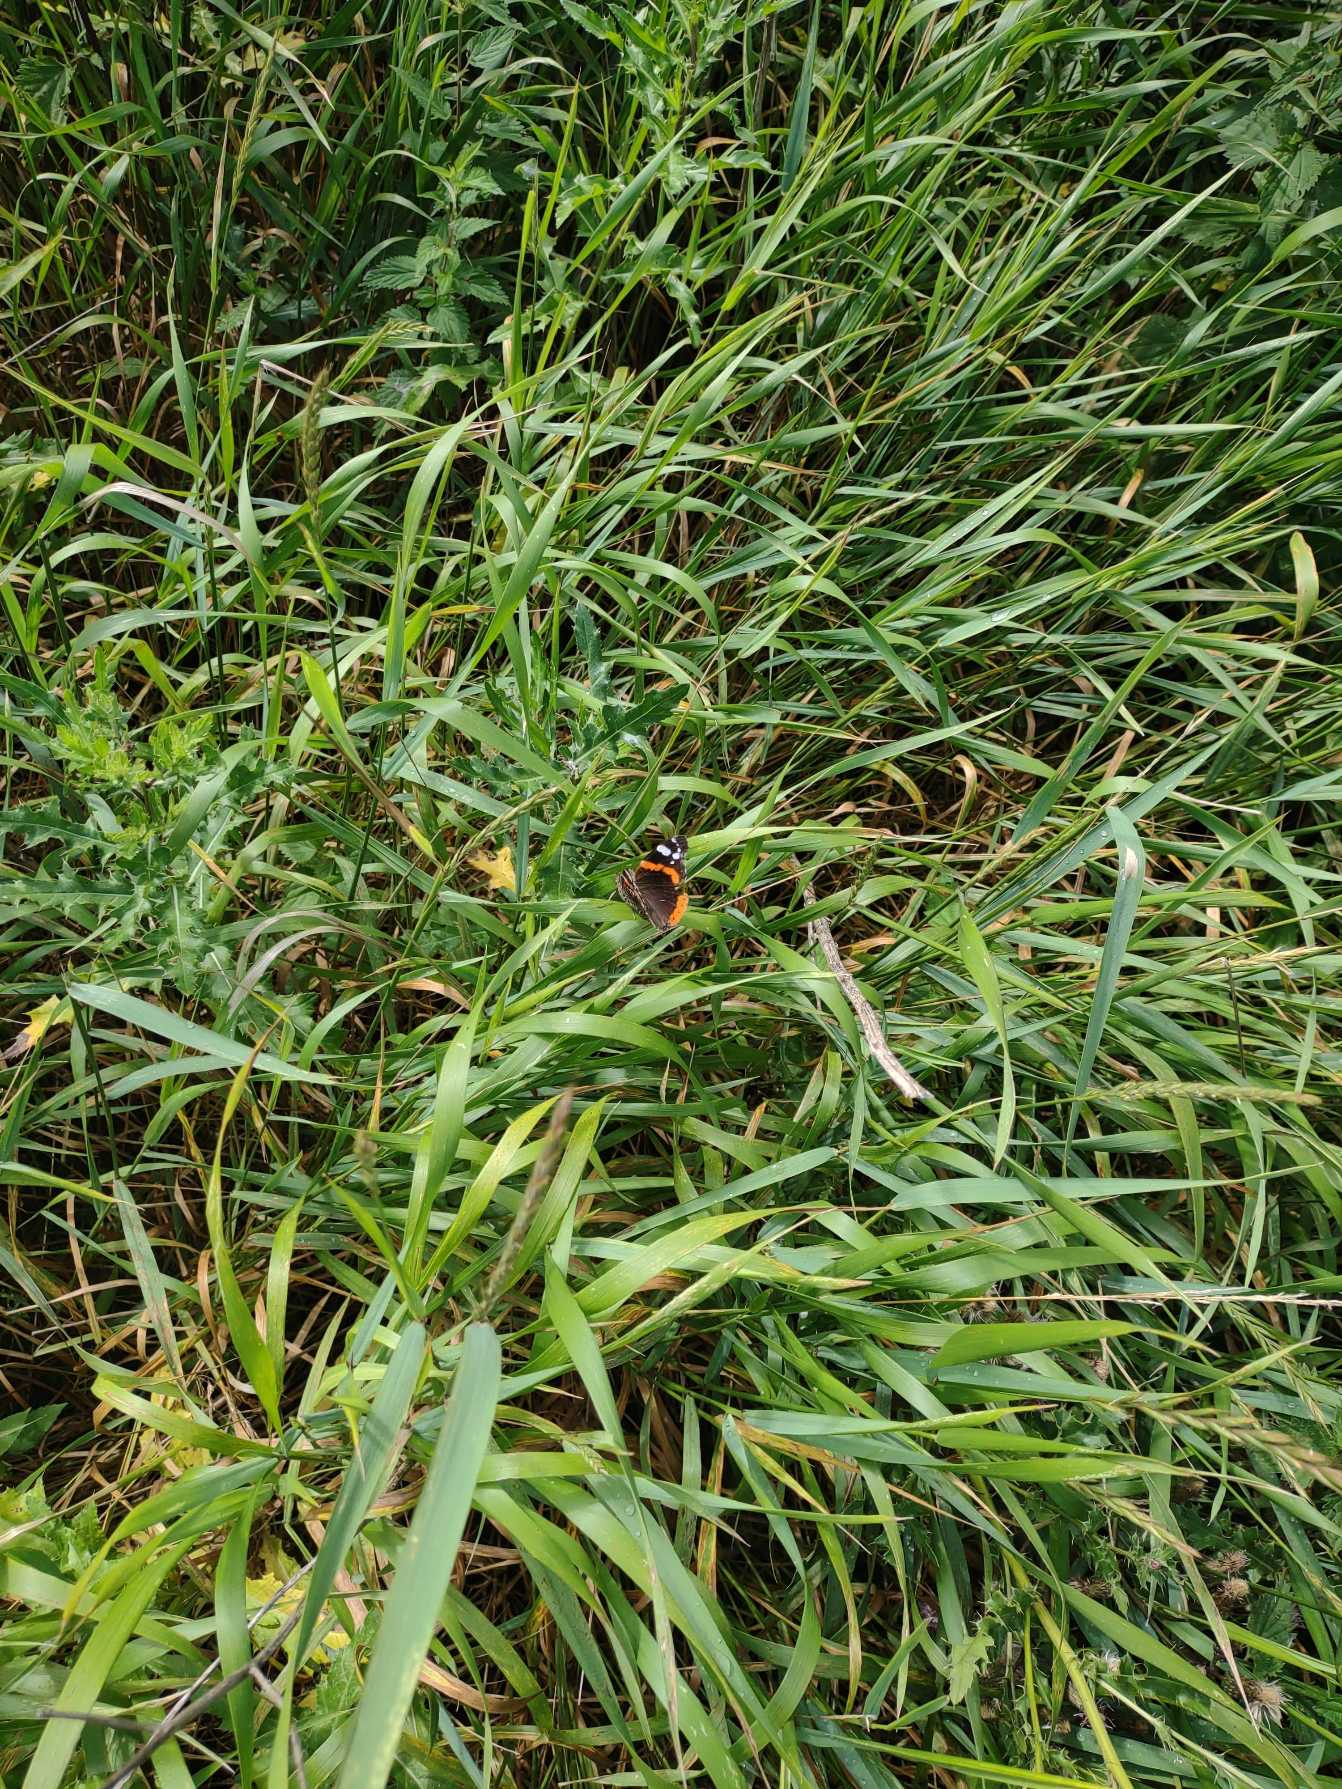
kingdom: Animalia
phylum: Arthropoda
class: Insecta
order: Lepidoptera
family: Nymphalidae
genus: Vanessa
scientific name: Vanessa atalanta
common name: Admiral
